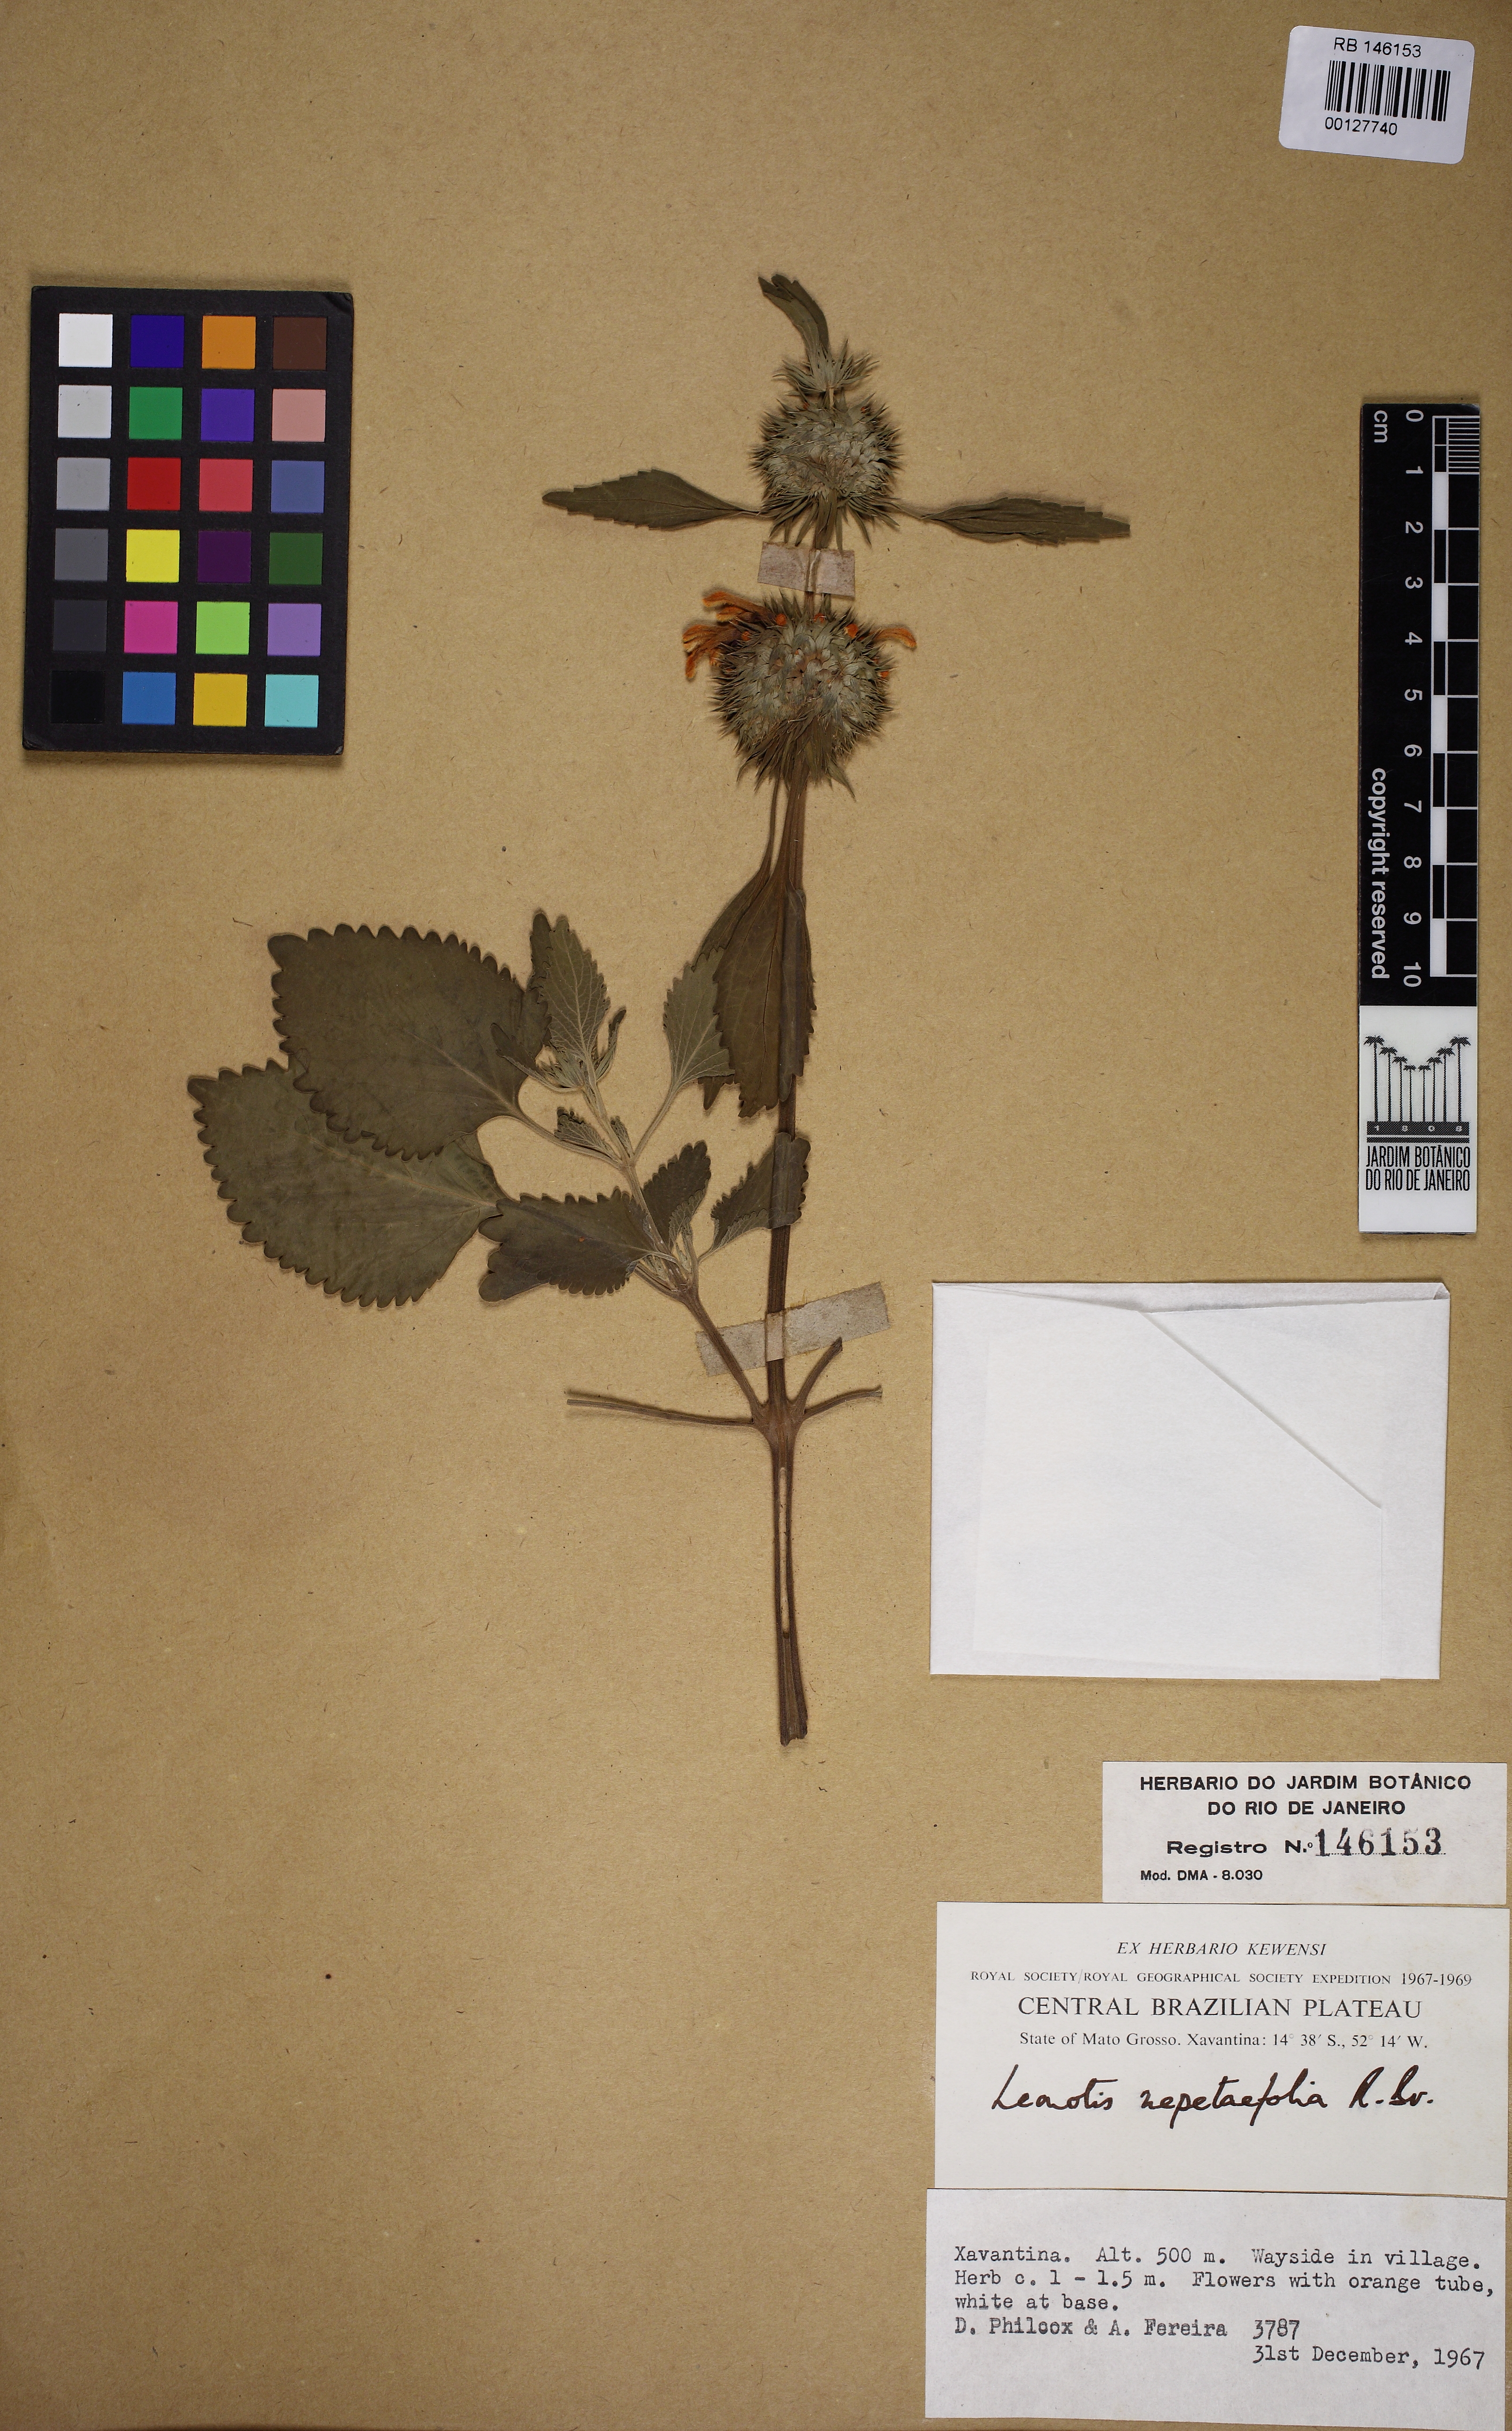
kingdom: Plantae
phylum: Tracheophyta
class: Magnoliopsida
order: Lamiales
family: Lamiaceae
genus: Leonotis
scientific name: Leonotis nepetifolia
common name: Christmas candlestick
